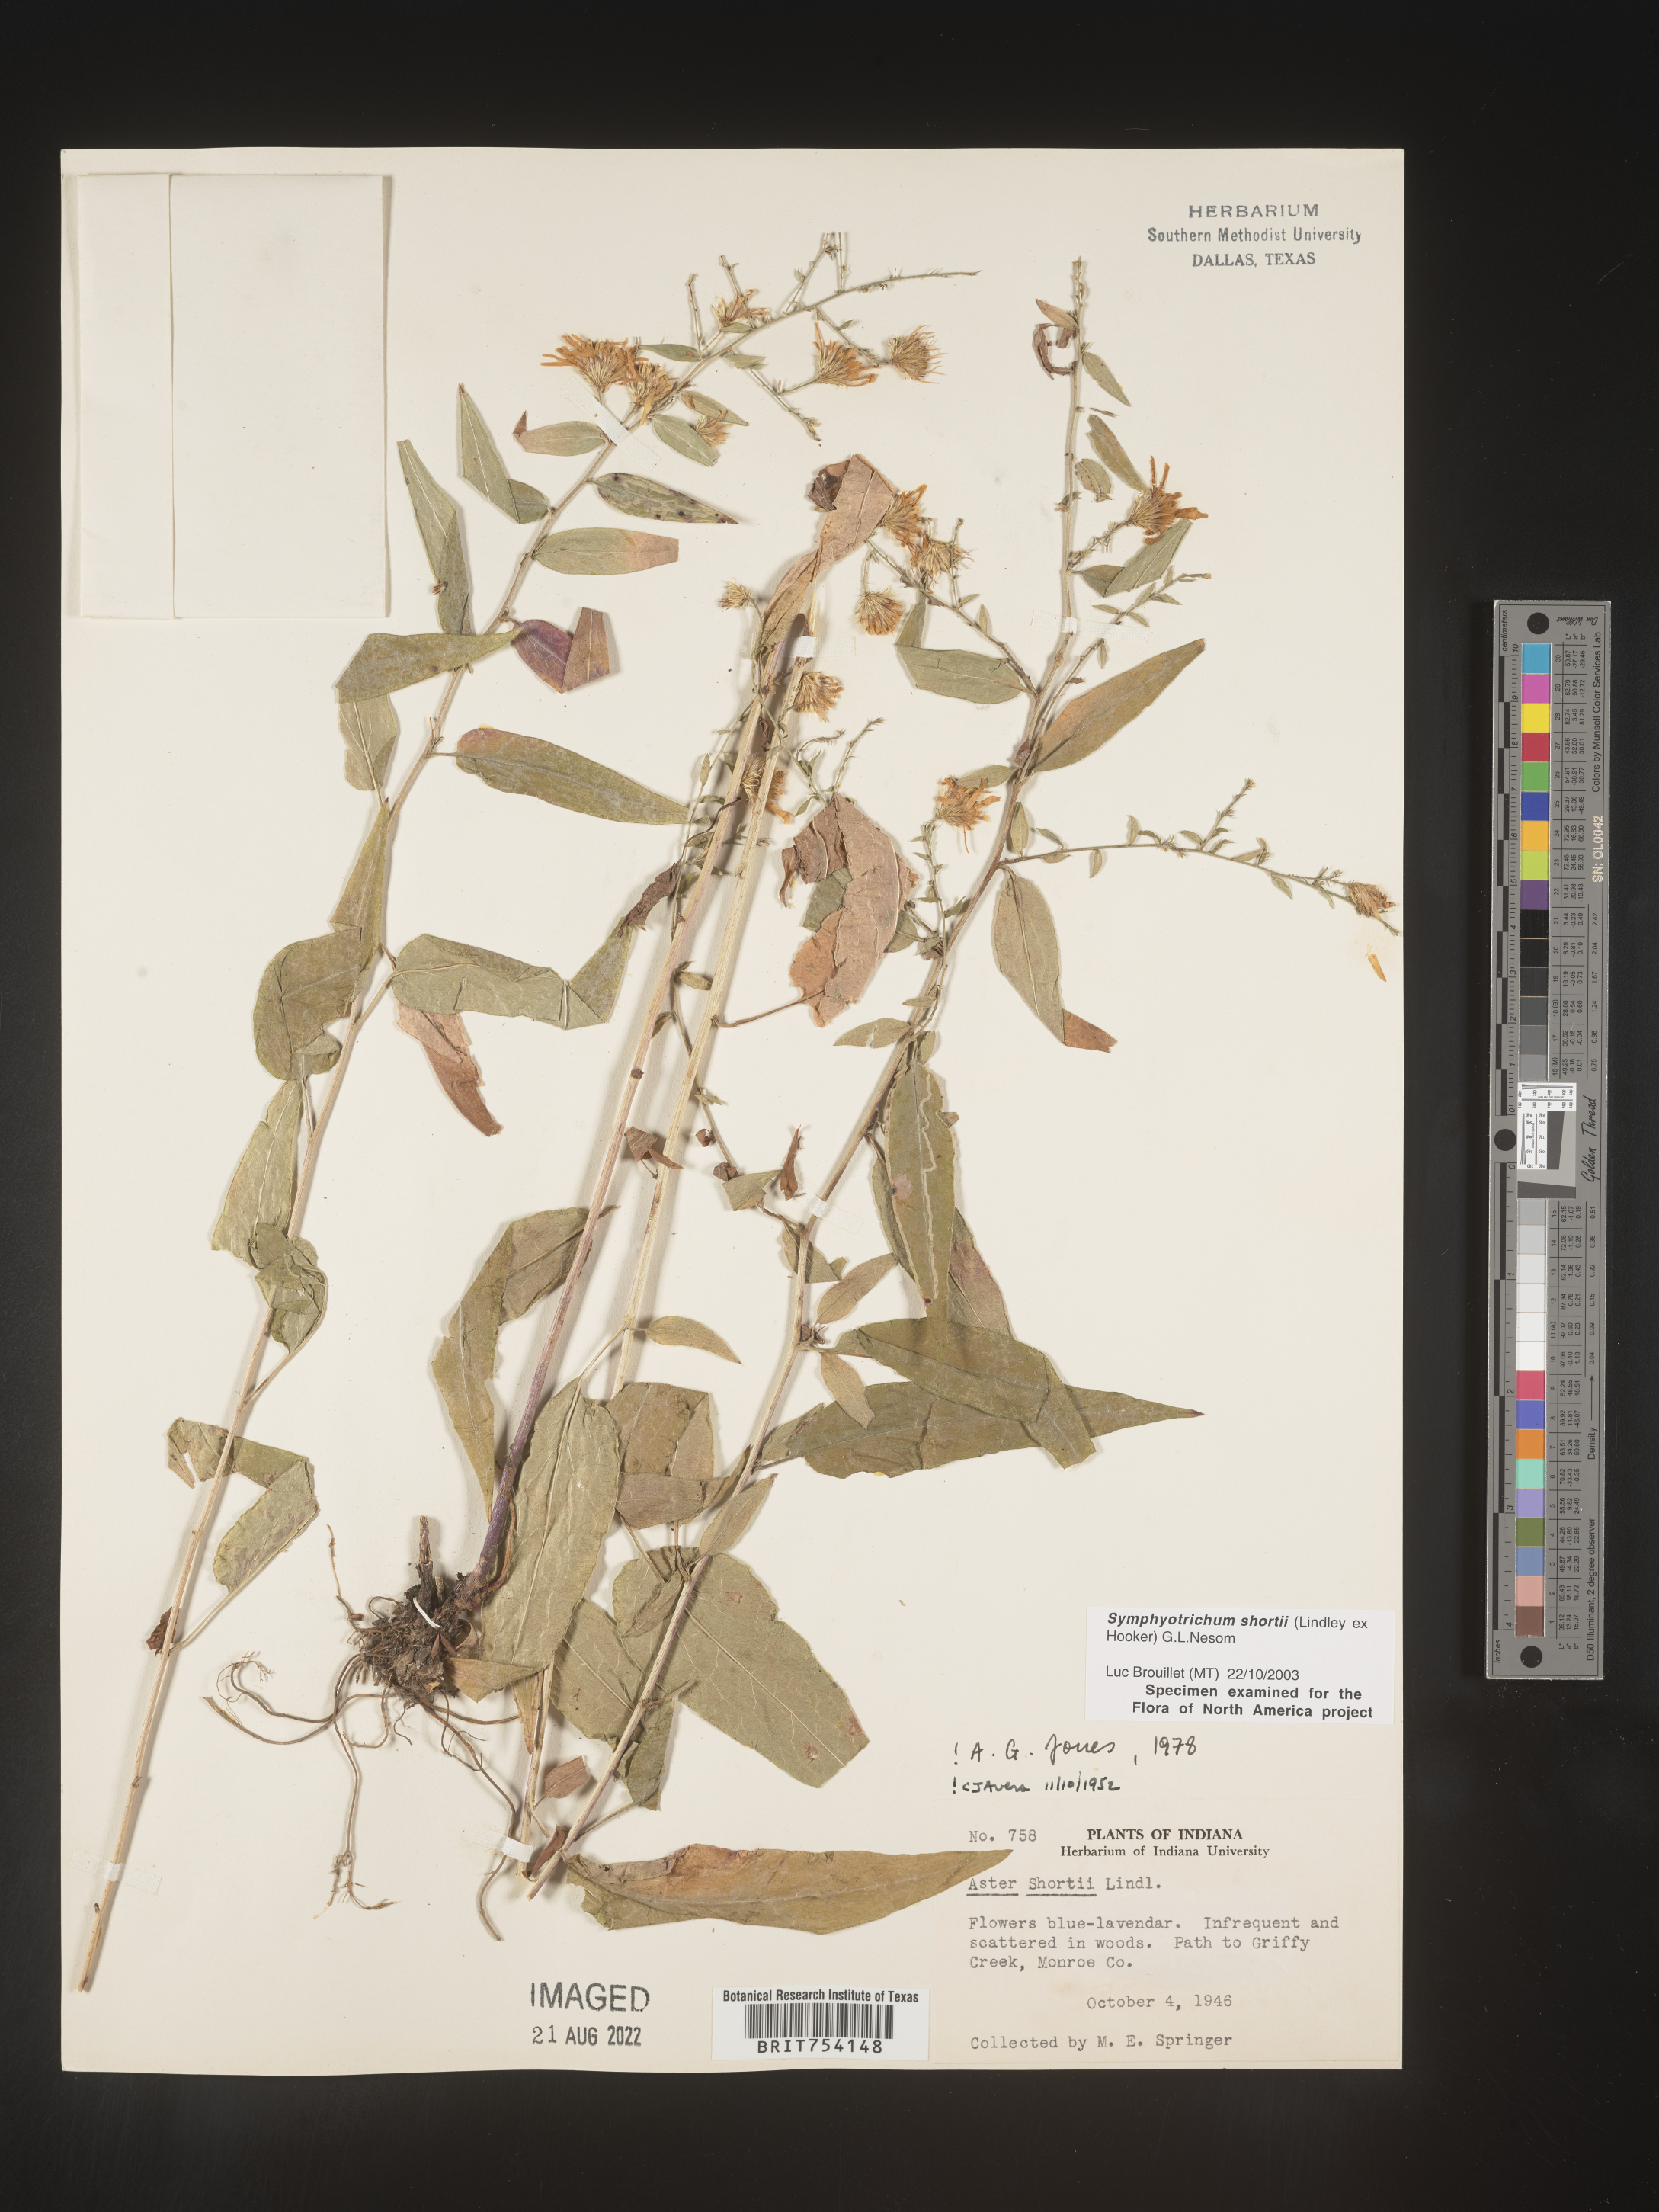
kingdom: Plantae
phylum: Tracheophyta
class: Magnoliopsida
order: Asterales
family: Asteraceae
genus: Symphyotrichum
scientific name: Symphyotrichum shortii
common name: Short's aster
